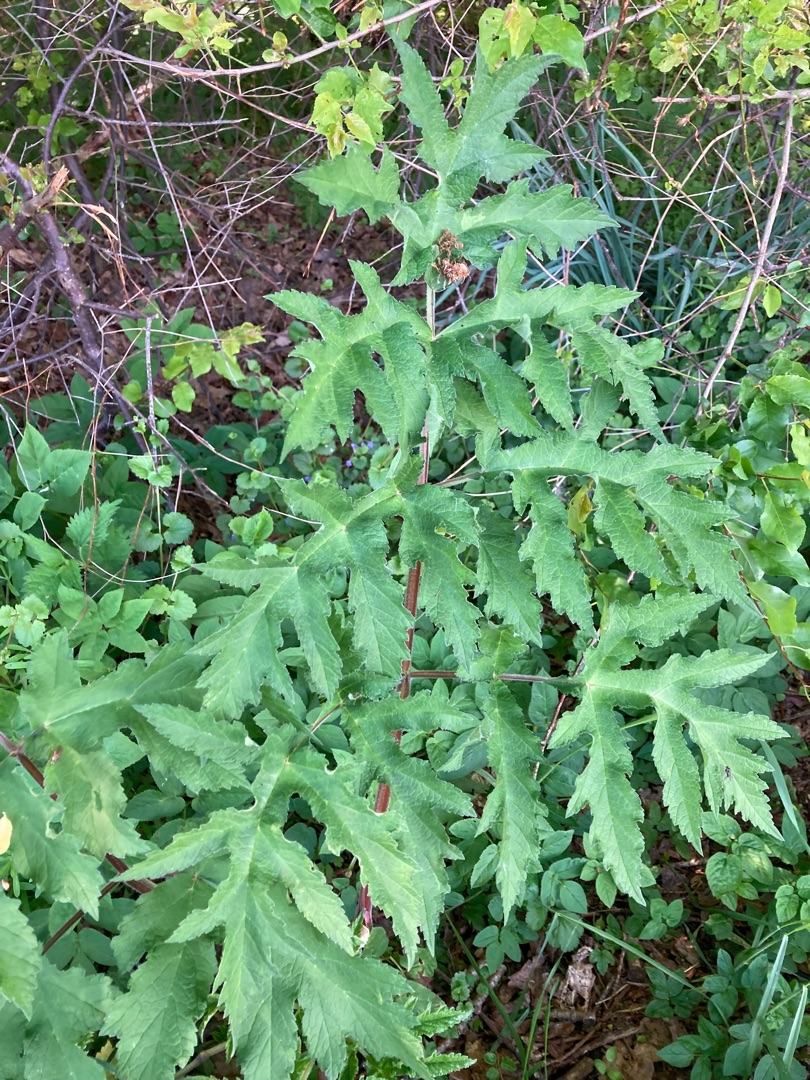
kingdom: Plantae
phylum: Tracheophyta
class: Magnoliopsida
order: Apiales
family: Apiaceae
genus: Heracleum
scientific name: Heracleum sphondylium
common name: Almindelig bjørneklo
